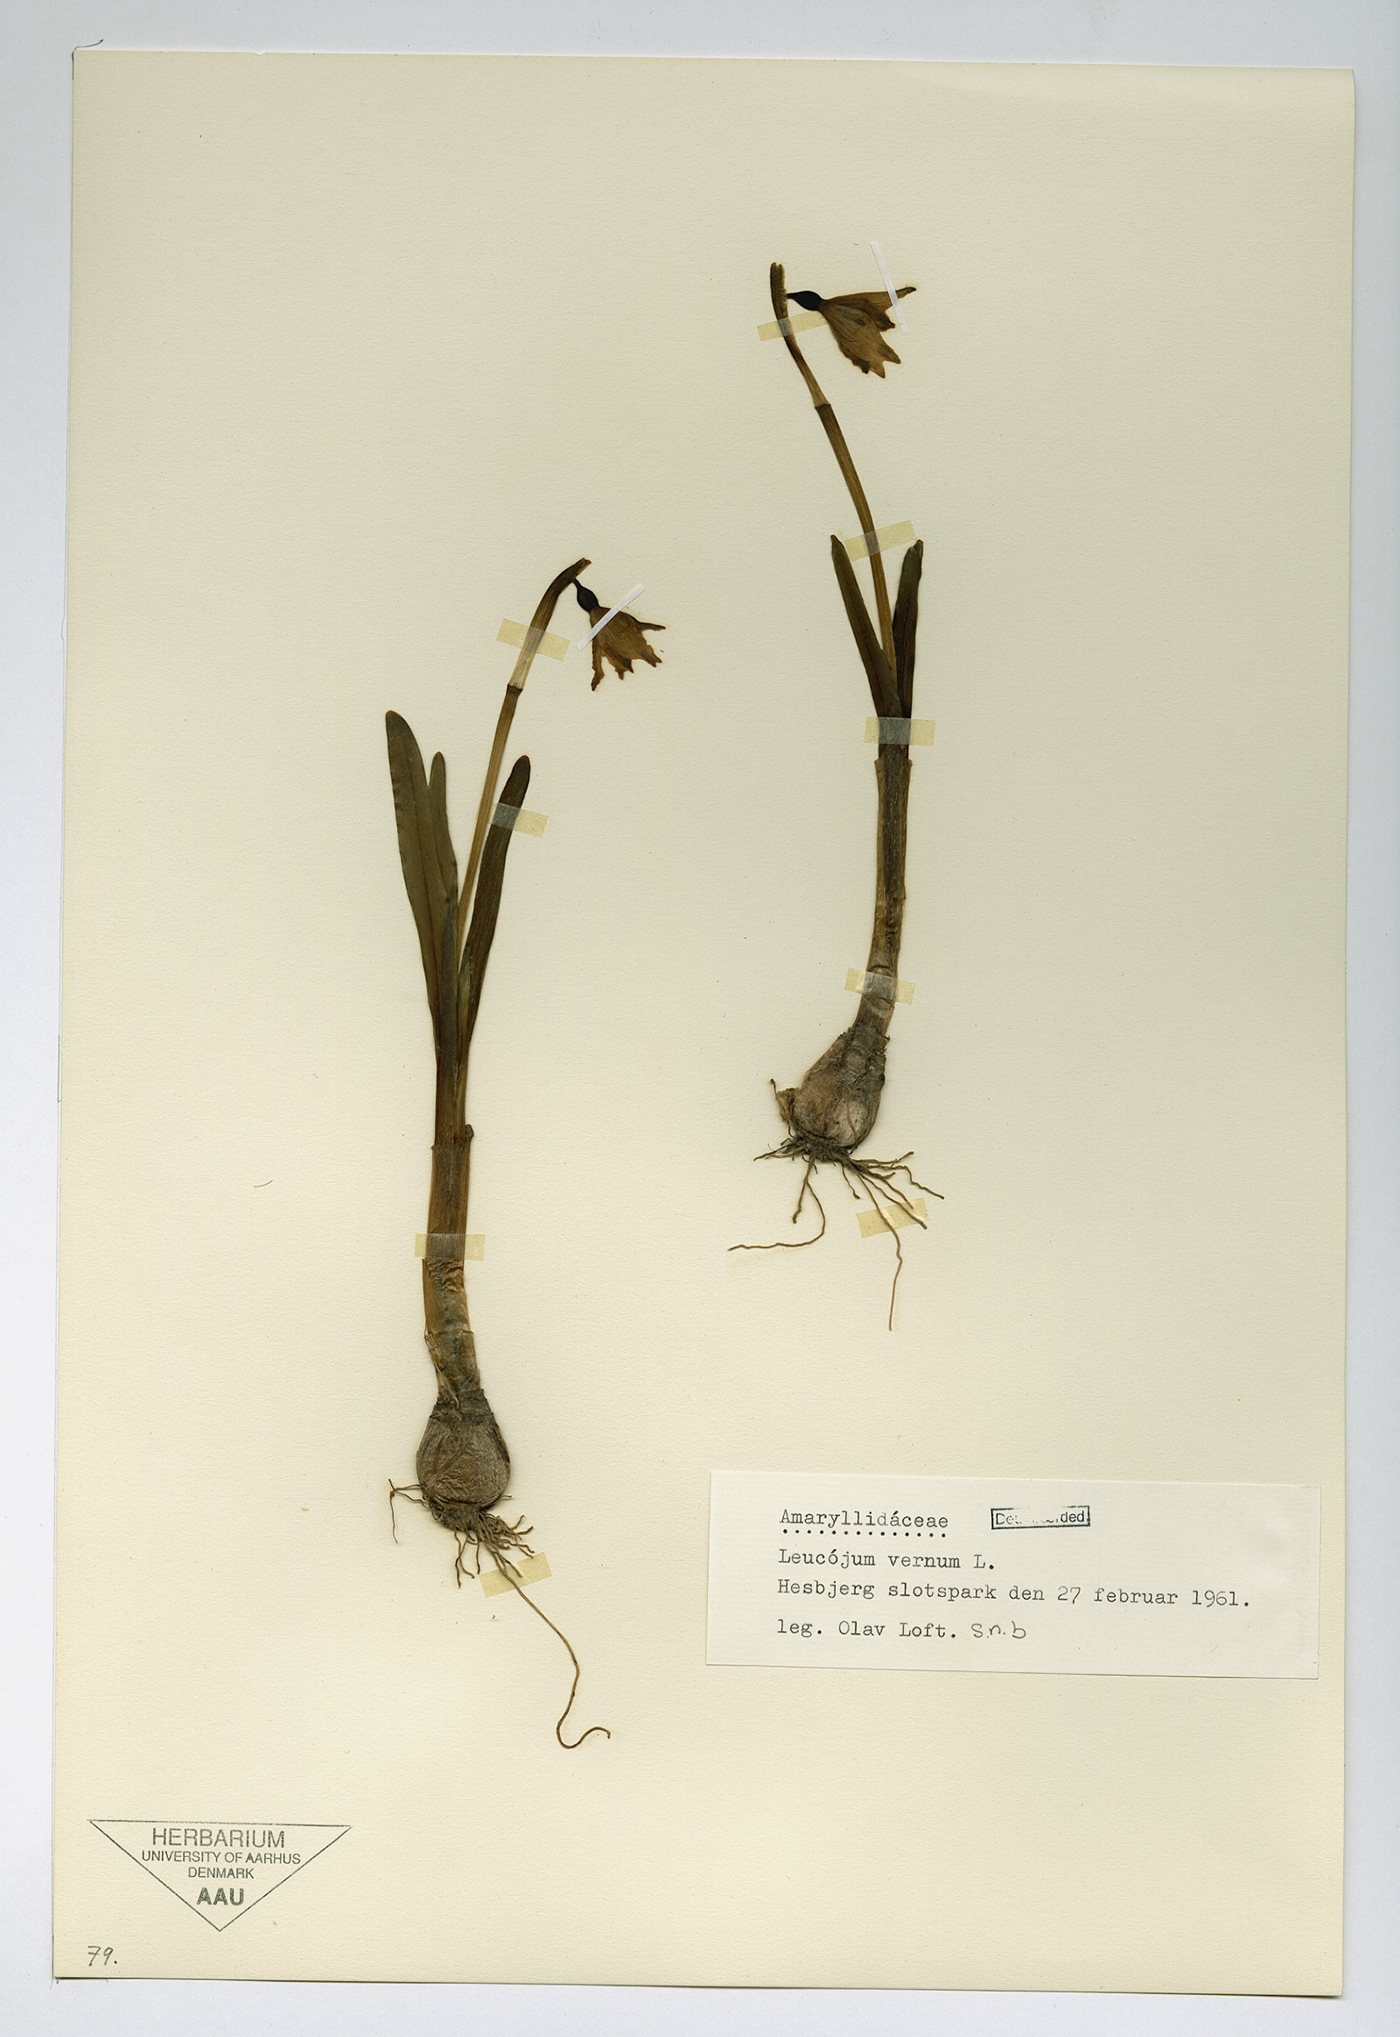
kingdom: Plantae
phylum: Tracheophyta
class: Liliopsida
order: Asparagales
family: Amaryllidaceae
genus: Leucojum
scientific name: Leucojum vernum
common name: Spring snowflake
